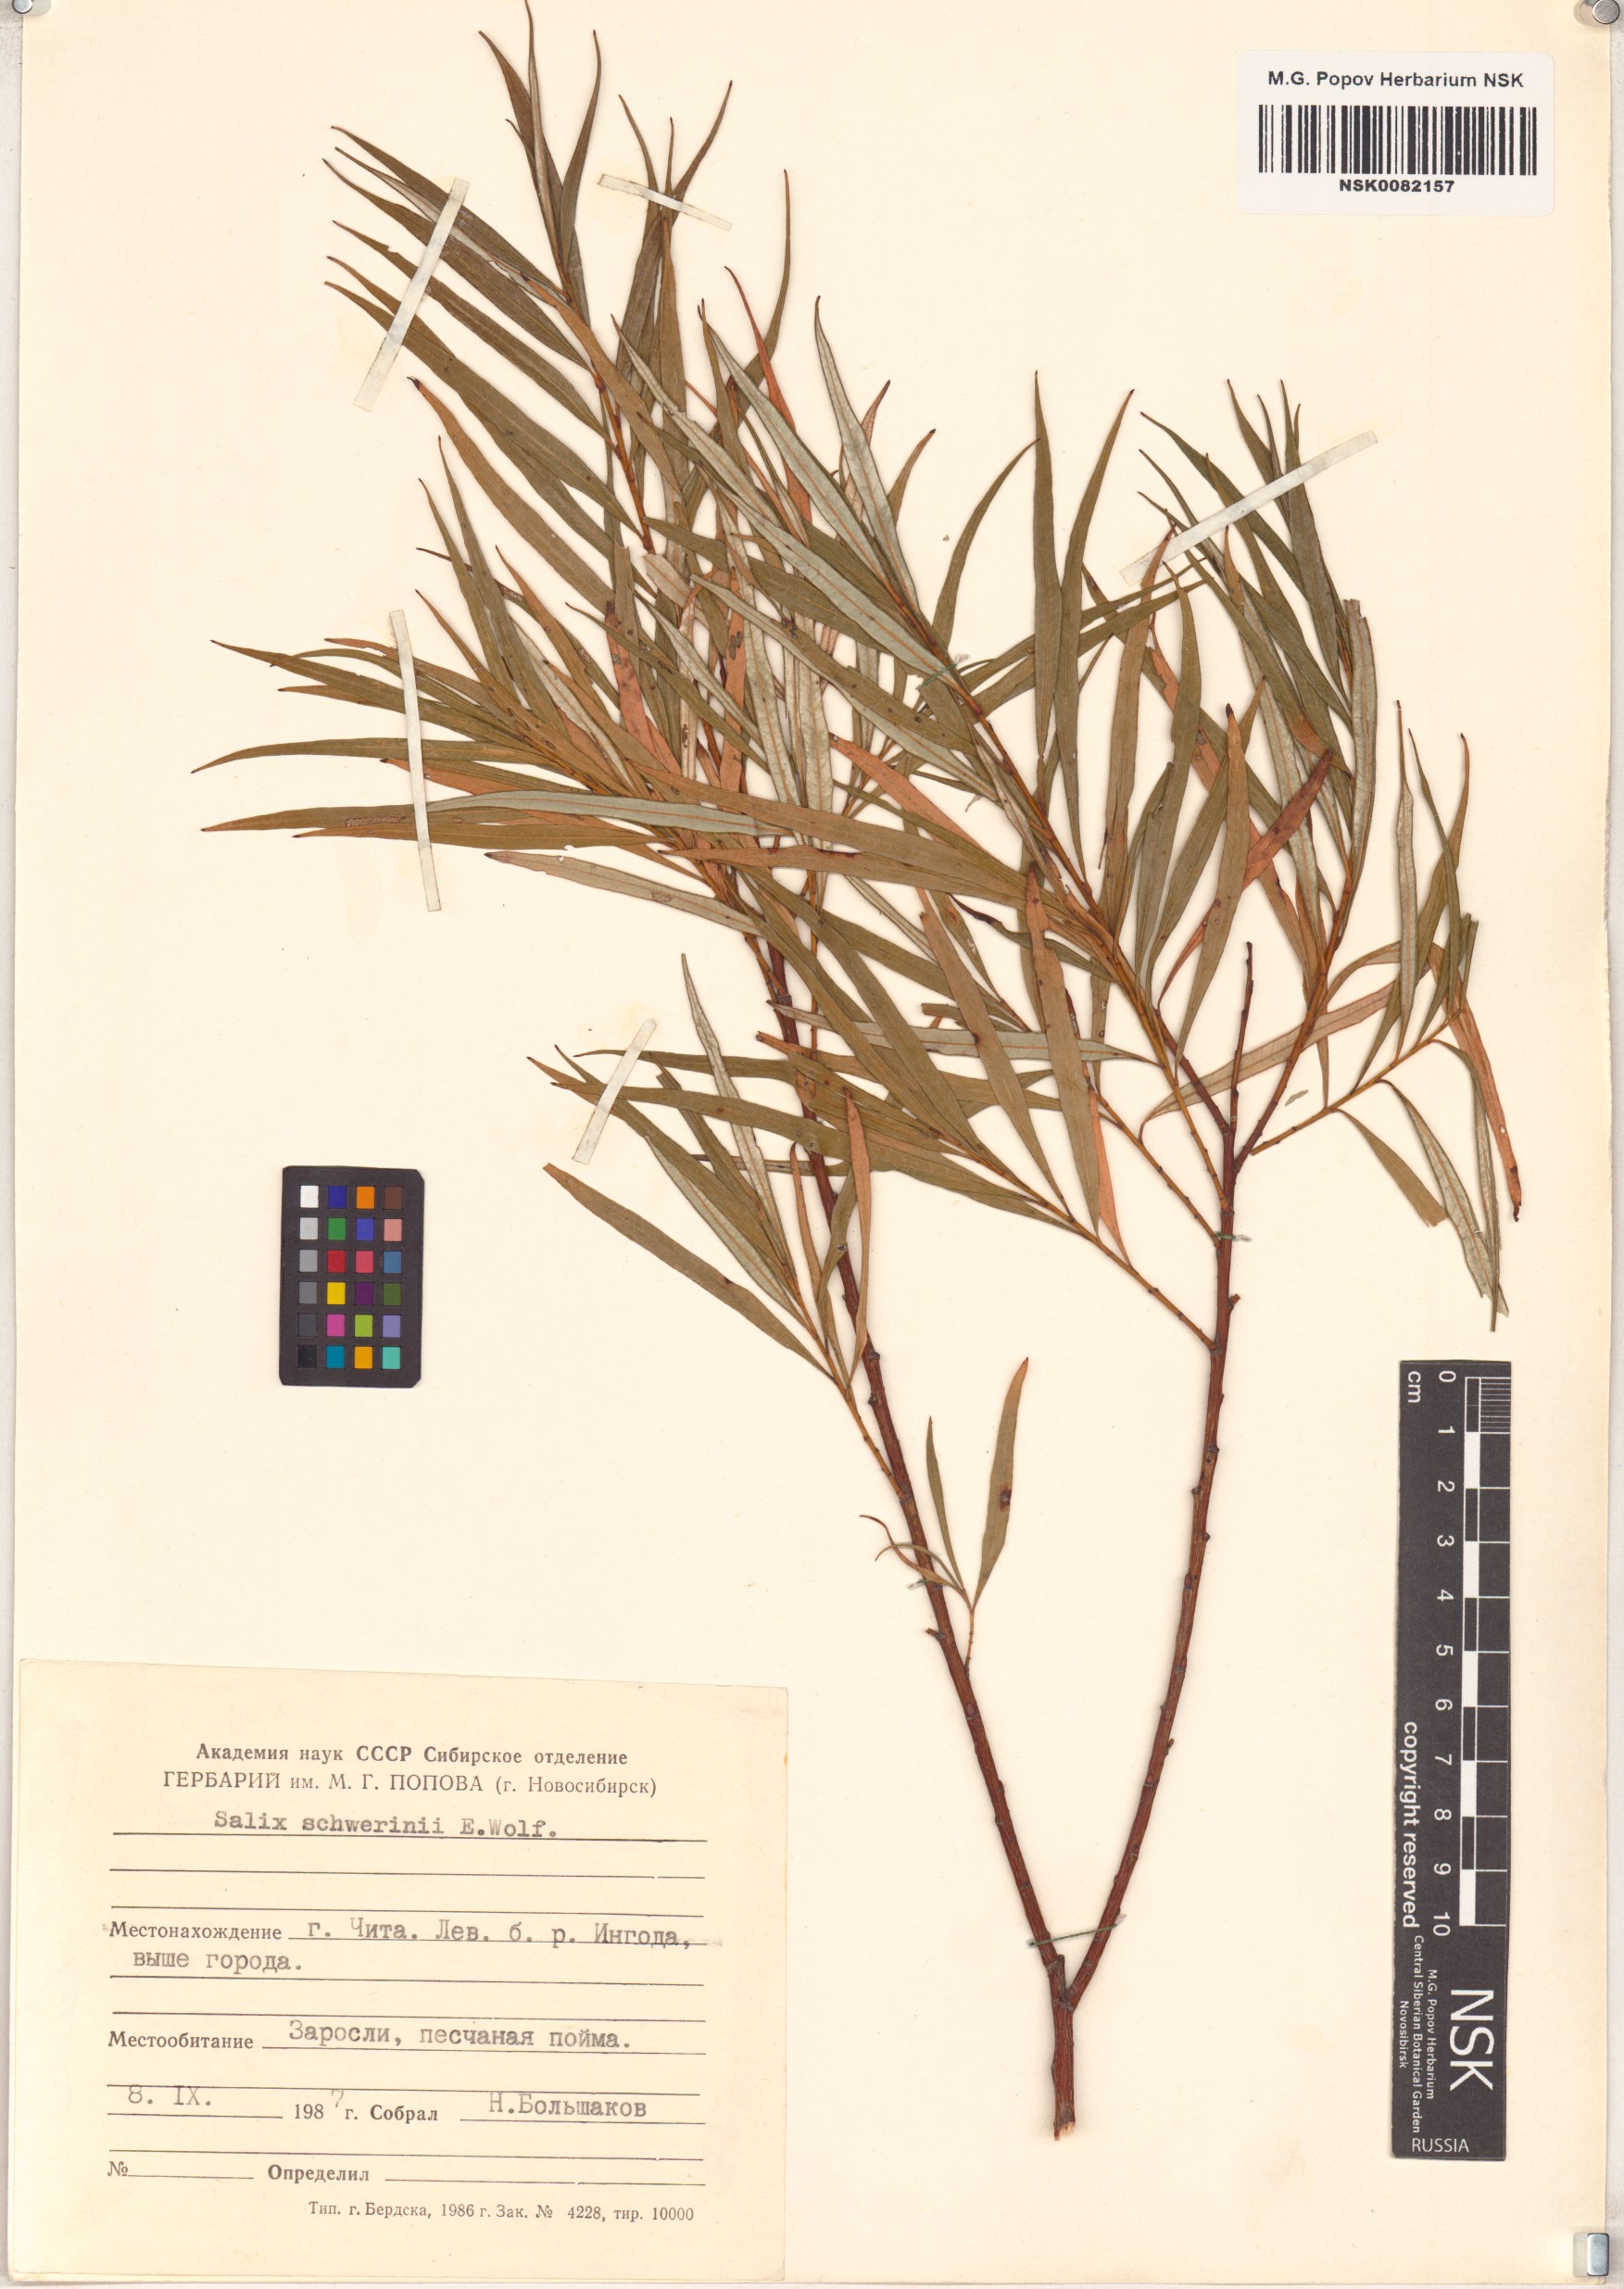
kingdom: Plantae
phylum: Tracheophyta
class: Magnoliopsida
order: Malpighiales
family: Salicaceae
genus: Salix
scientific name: Salix schwerinii
